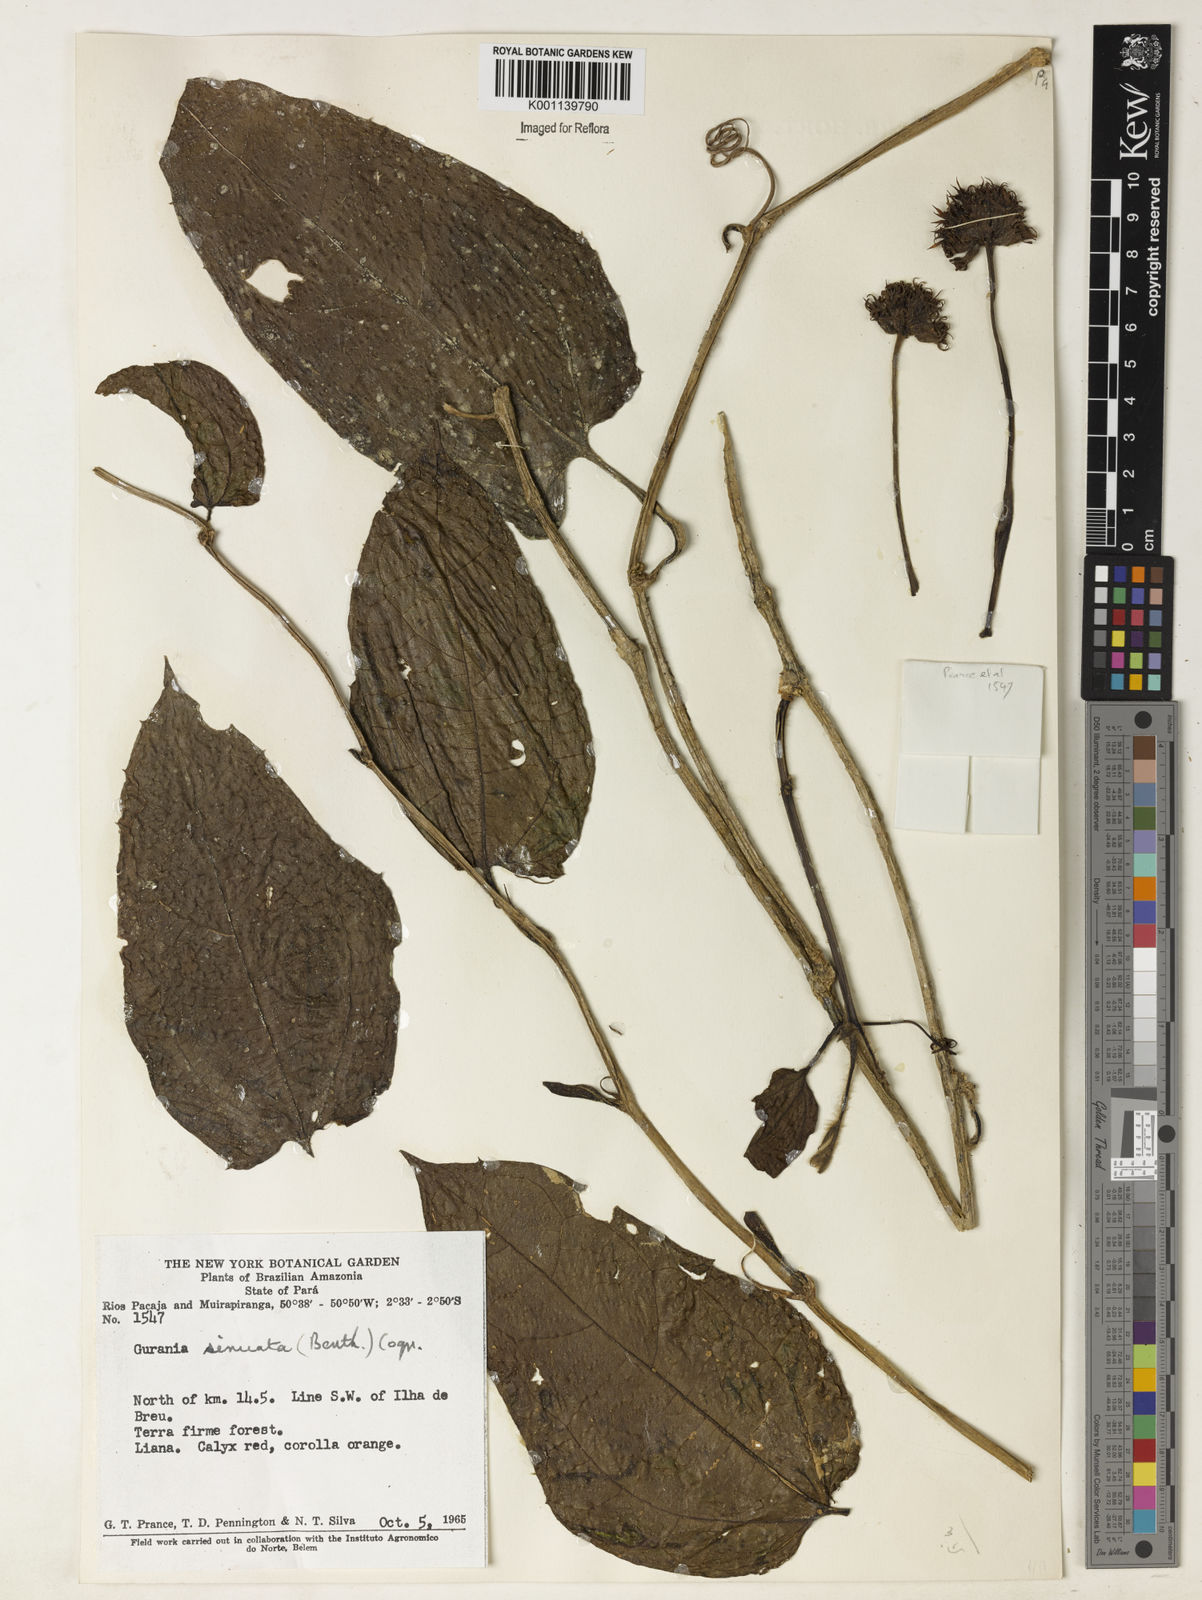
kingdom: Plantae
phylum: Tracheophyta
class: Magnoliopsida
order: Cucurbitales
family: Cucurbitaceae
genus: Gurania
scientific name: Gurania sinuata
